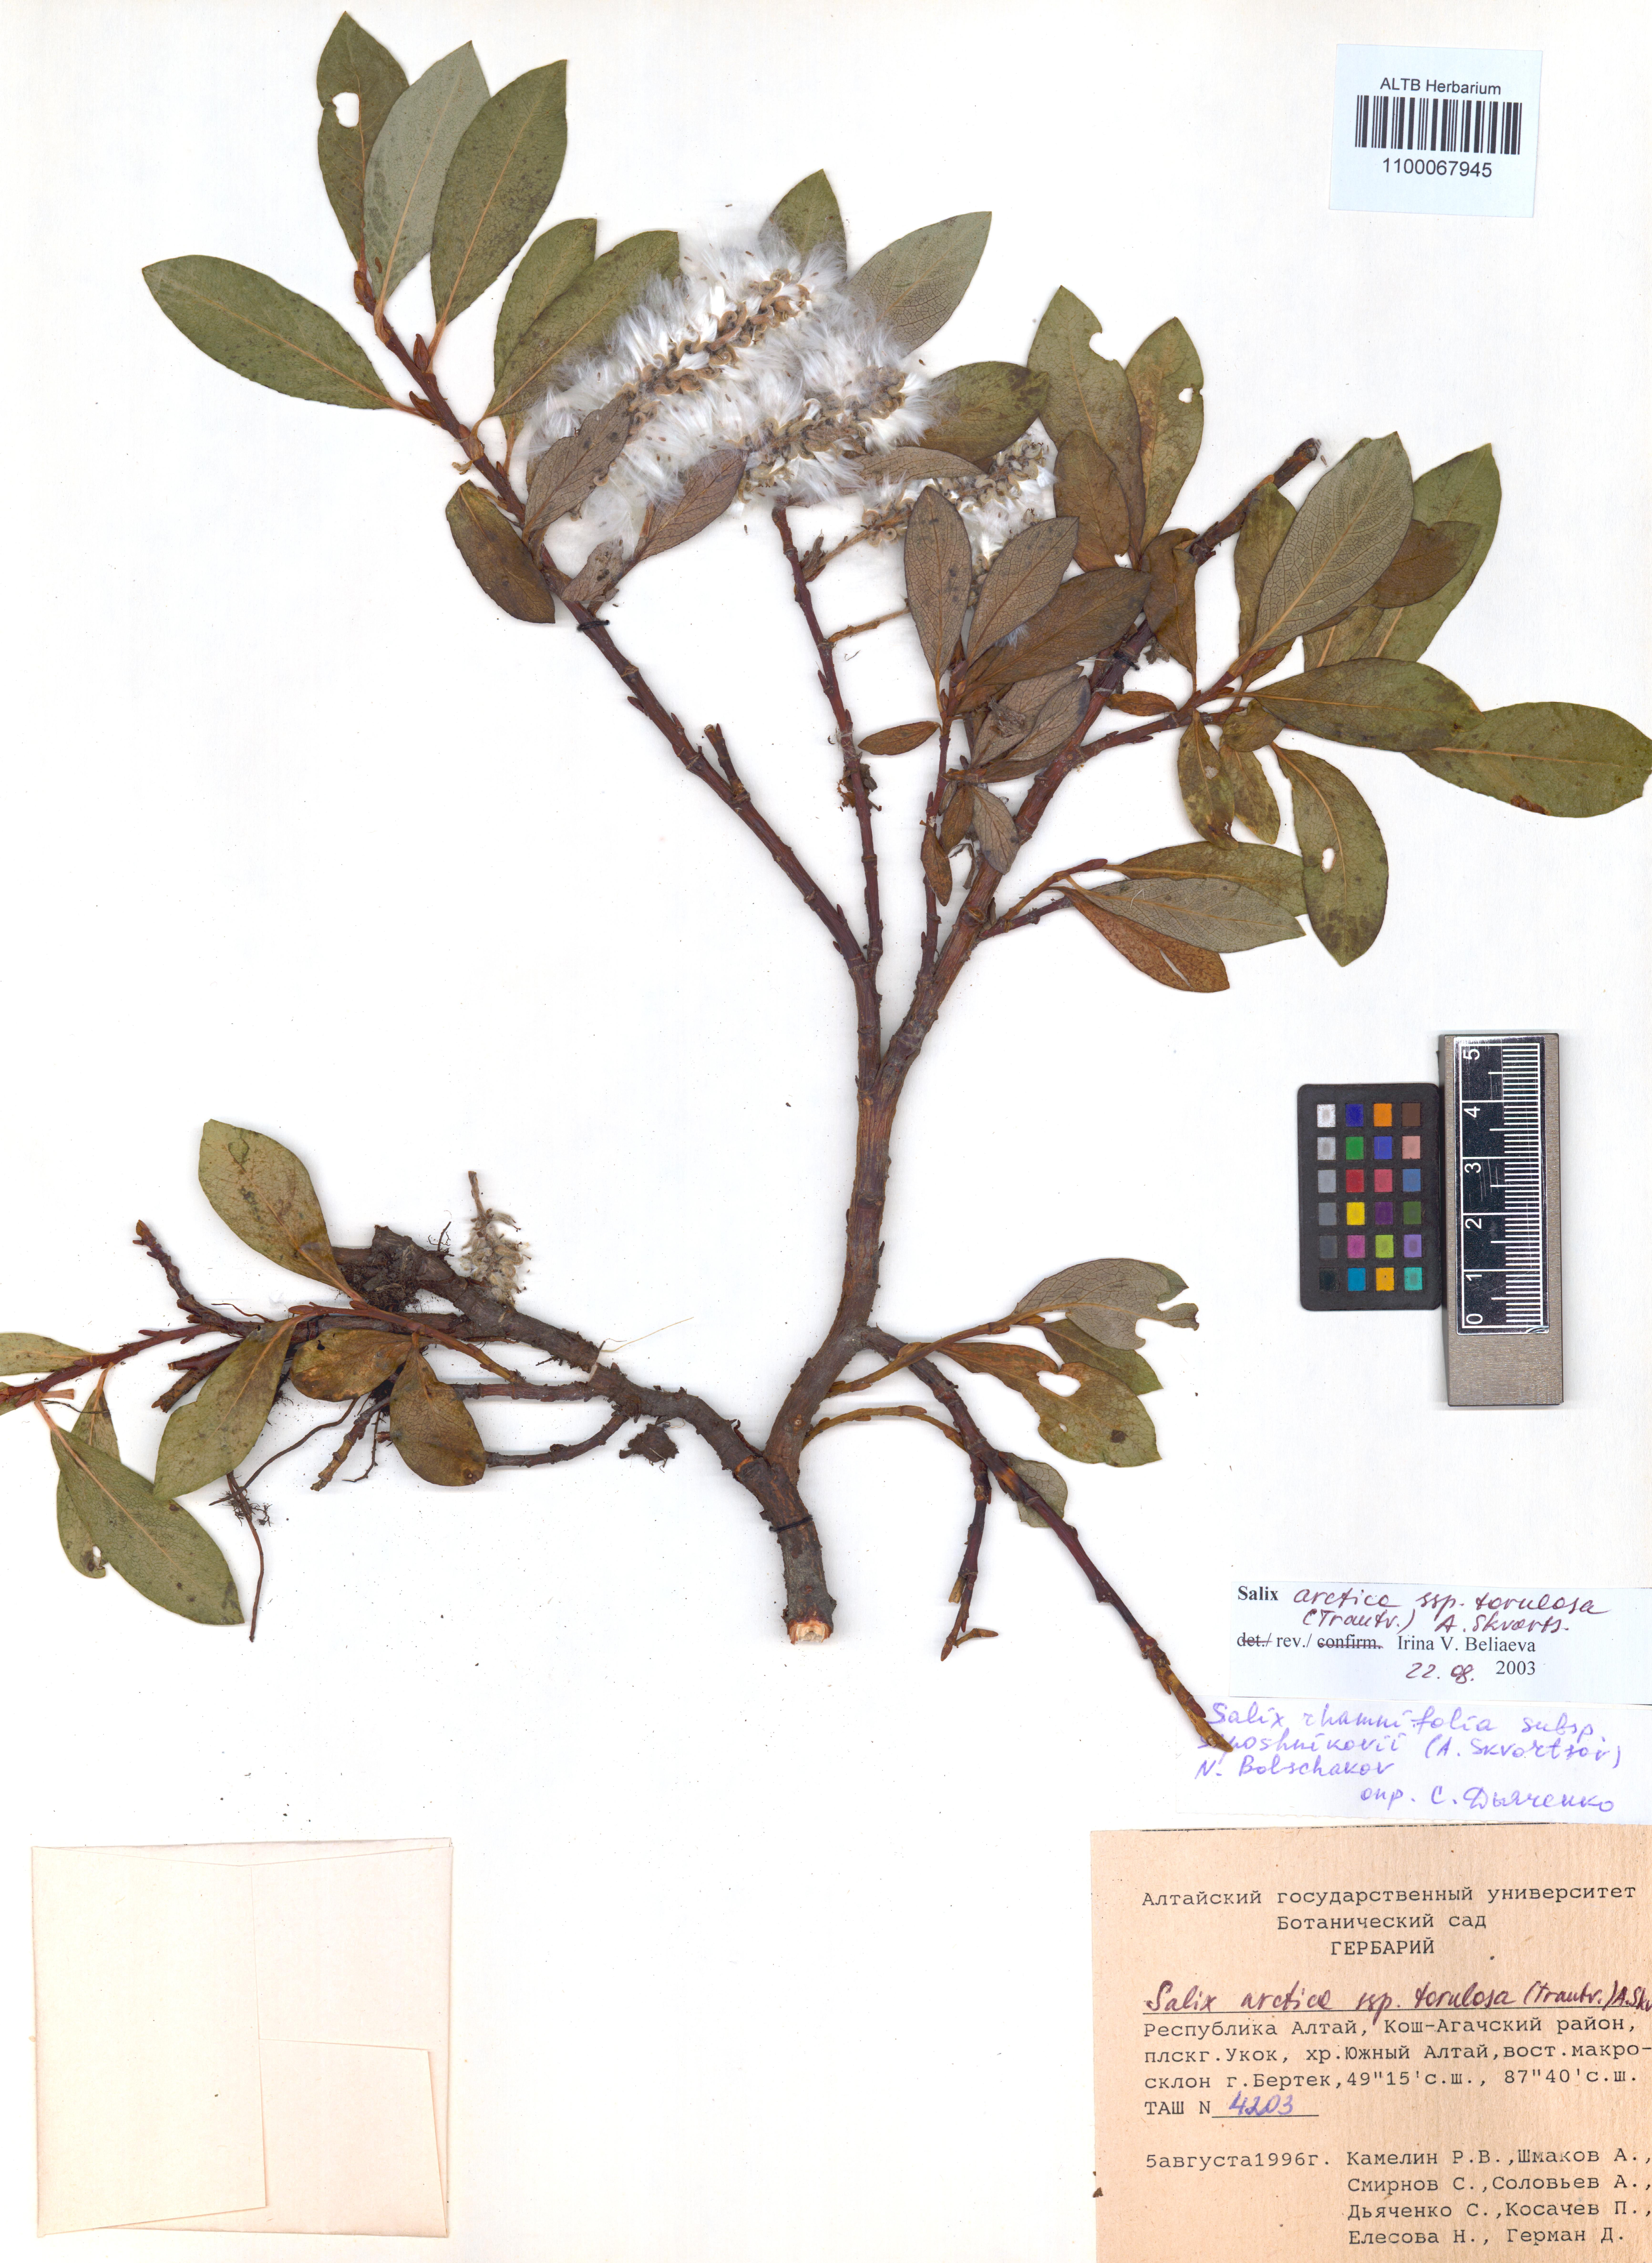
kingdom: Plantae
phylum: Tracheophyta
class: Magnoliopsida
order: Malpighiales
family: Salicaceae
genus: Salix
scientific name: Salix arctica
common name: Arctic willow
